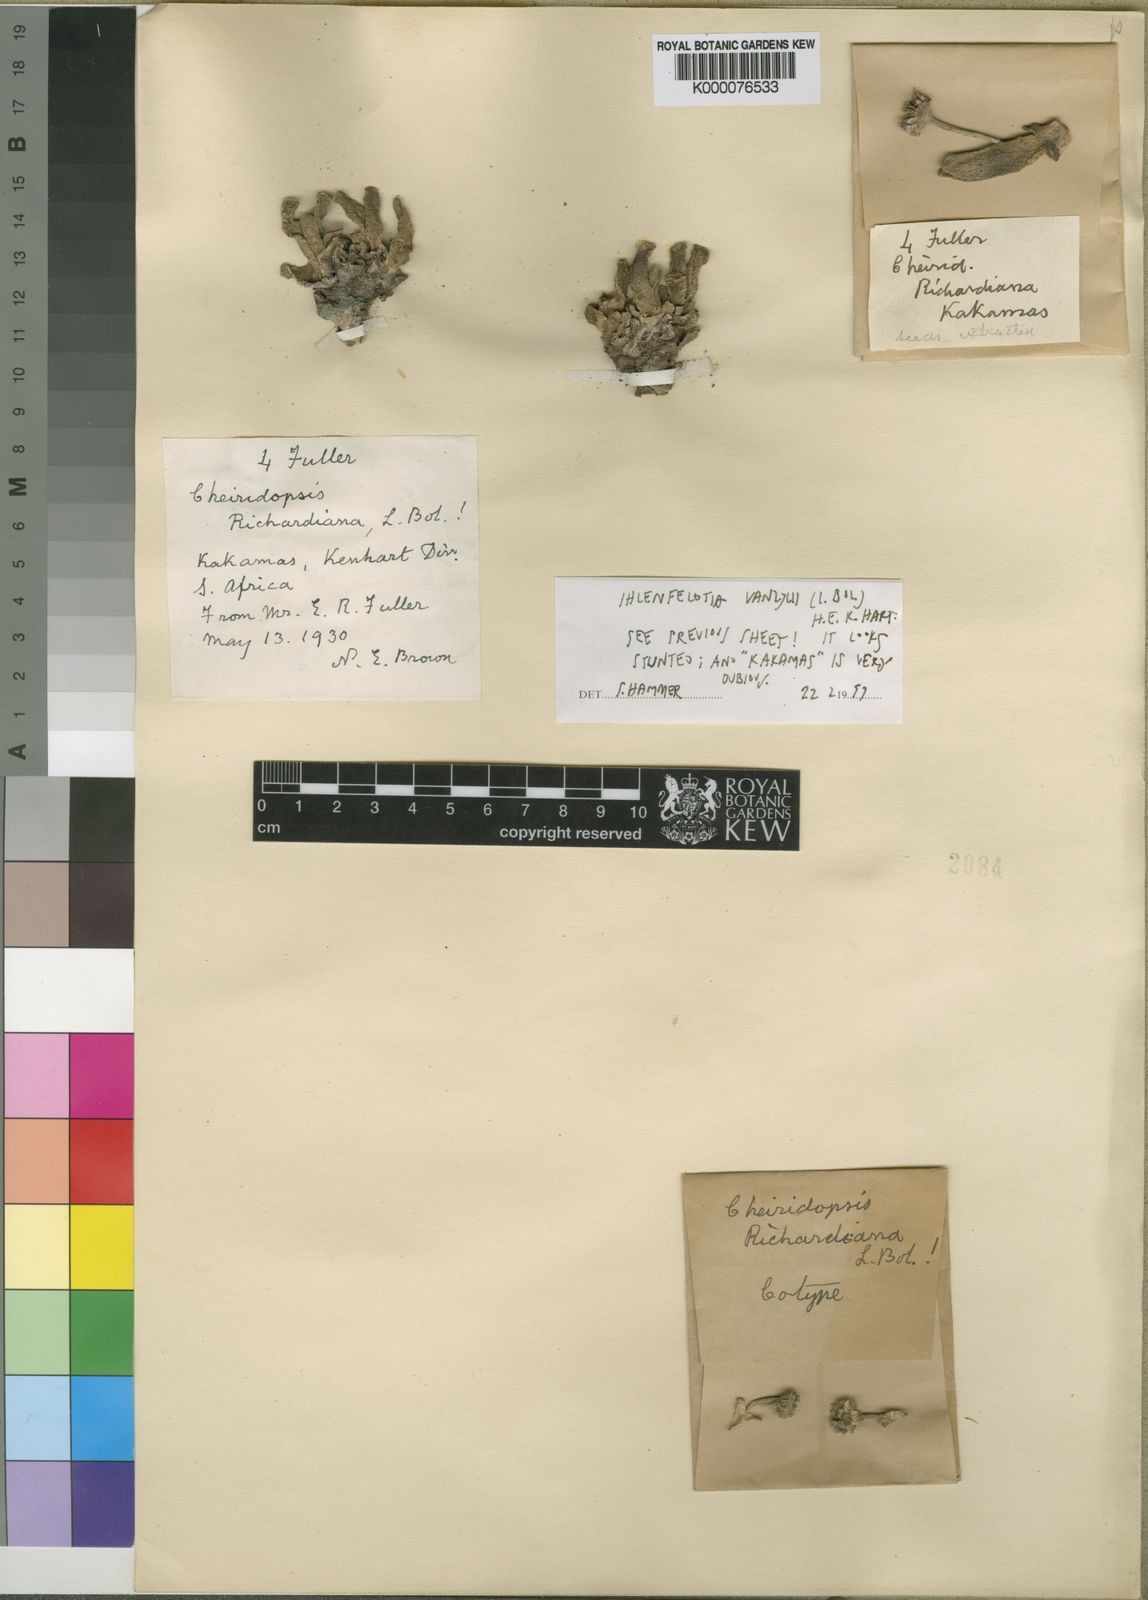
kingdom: Plantae
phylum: Tracheophyta
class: Magnoliopsida
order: Caryophyllales
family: Aizoaceae
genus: Cheiridopsis
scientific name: Cheiridopsis vanzylii
